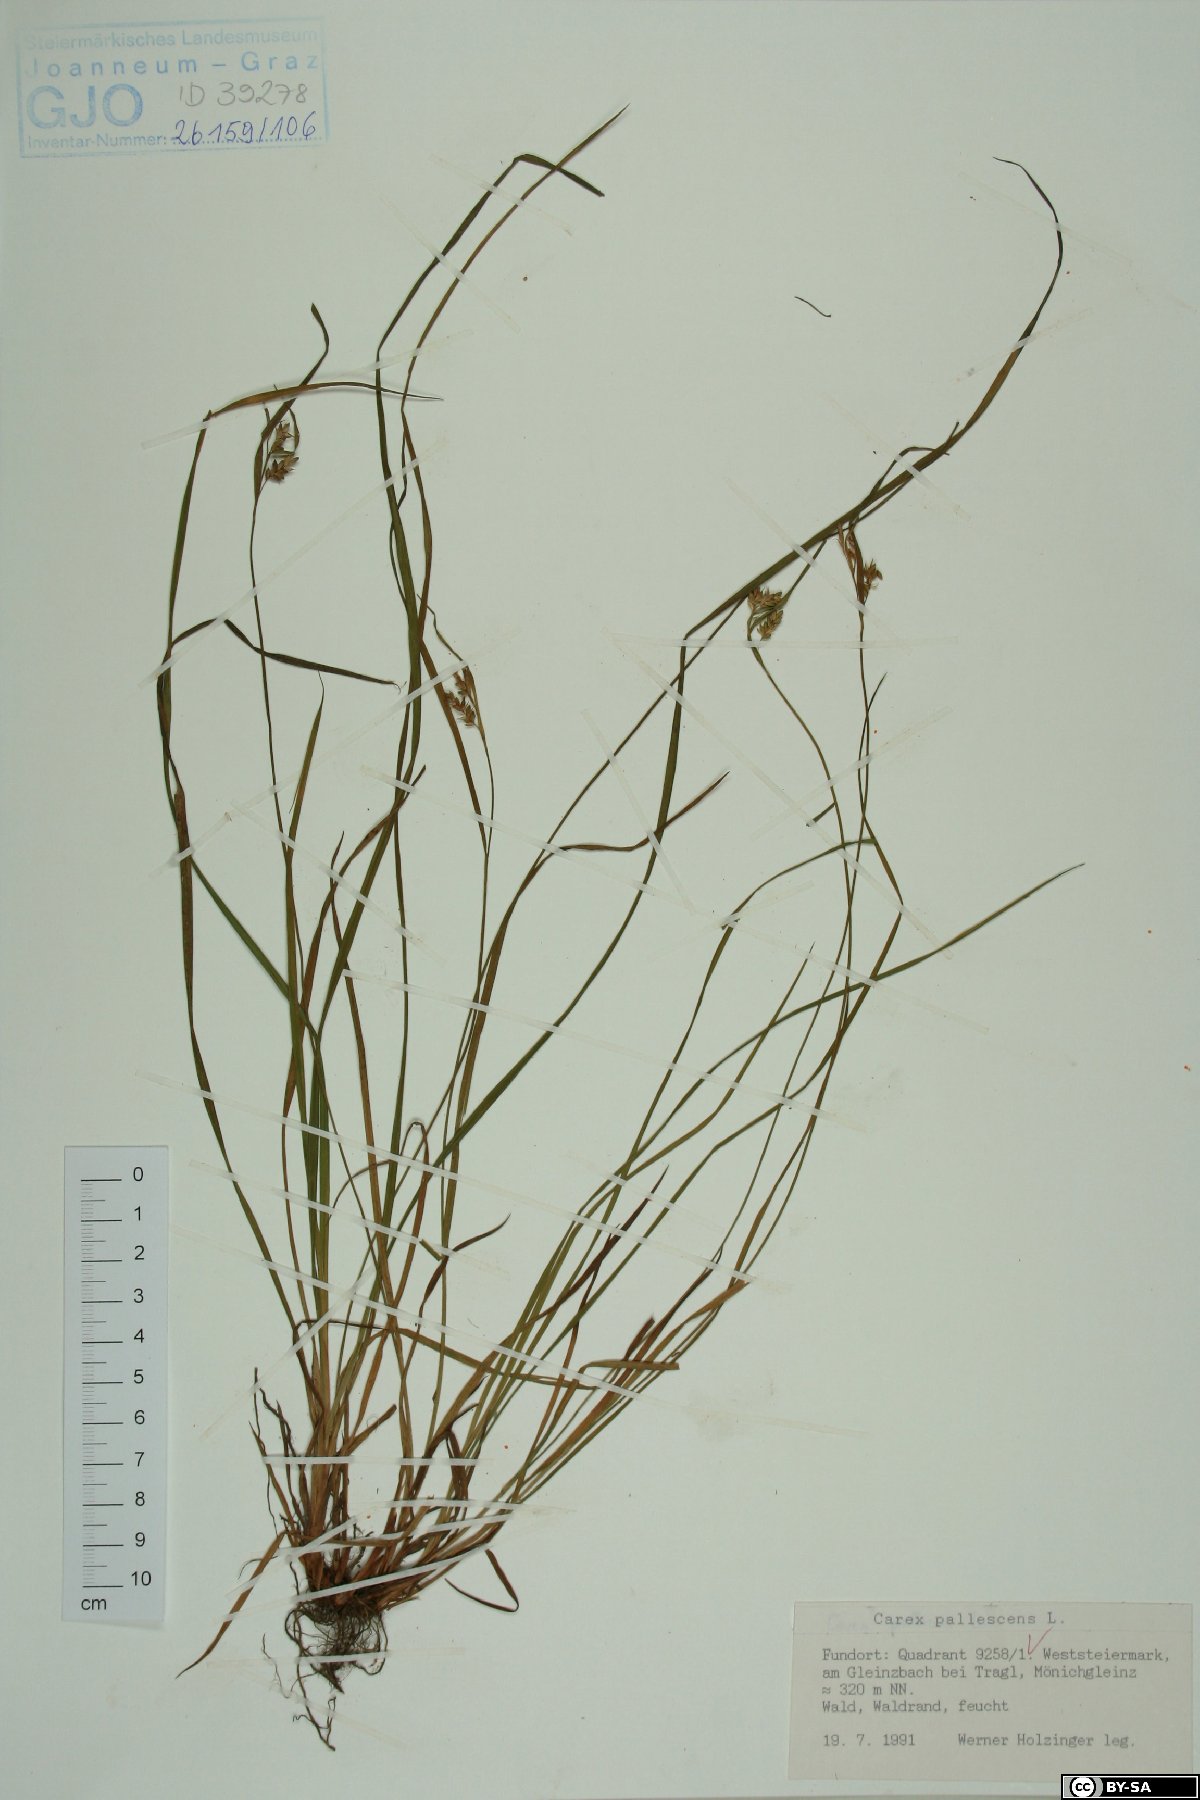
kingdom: Plantae
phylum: Tracheophyta
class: Liliopsida
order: Poales
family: Cyperaceae
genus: Carex
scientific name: Carex pallescens
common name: Pale sedge
